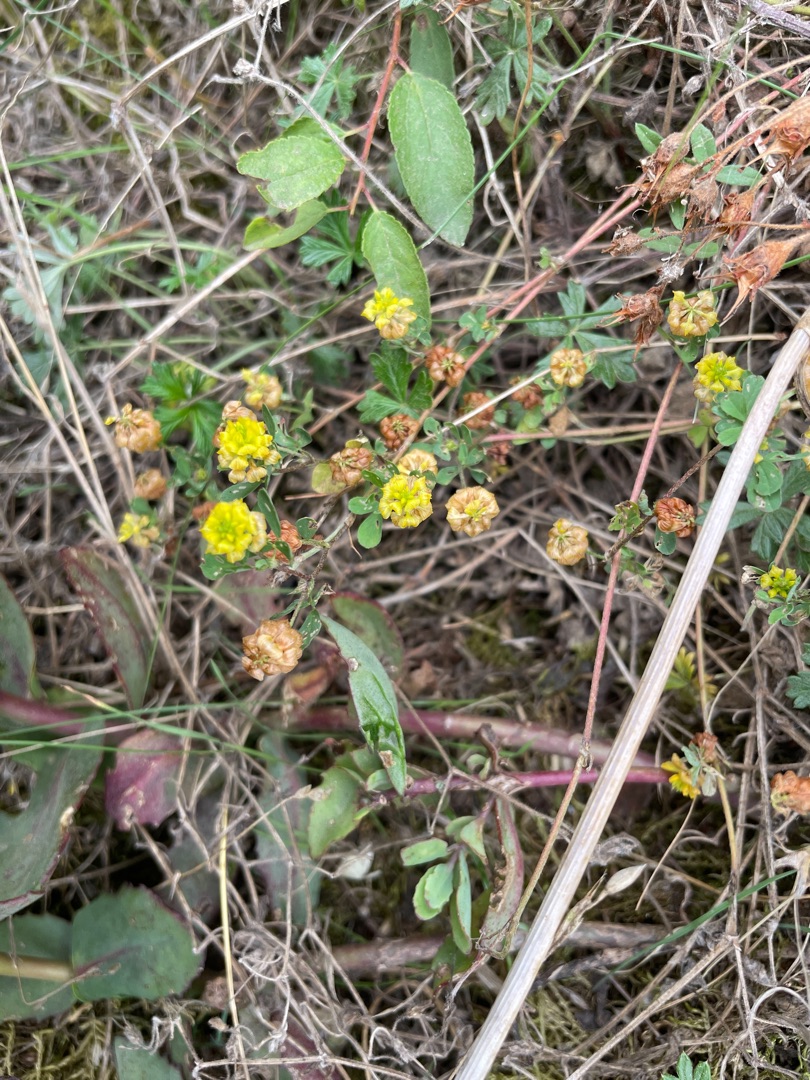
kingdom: Plantae
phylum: Tracheophyta
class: Magnoliopsida
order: Fabales
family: Fabaceae
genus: Trifolium
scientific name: Trifolium campestre
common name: Gul kløver
